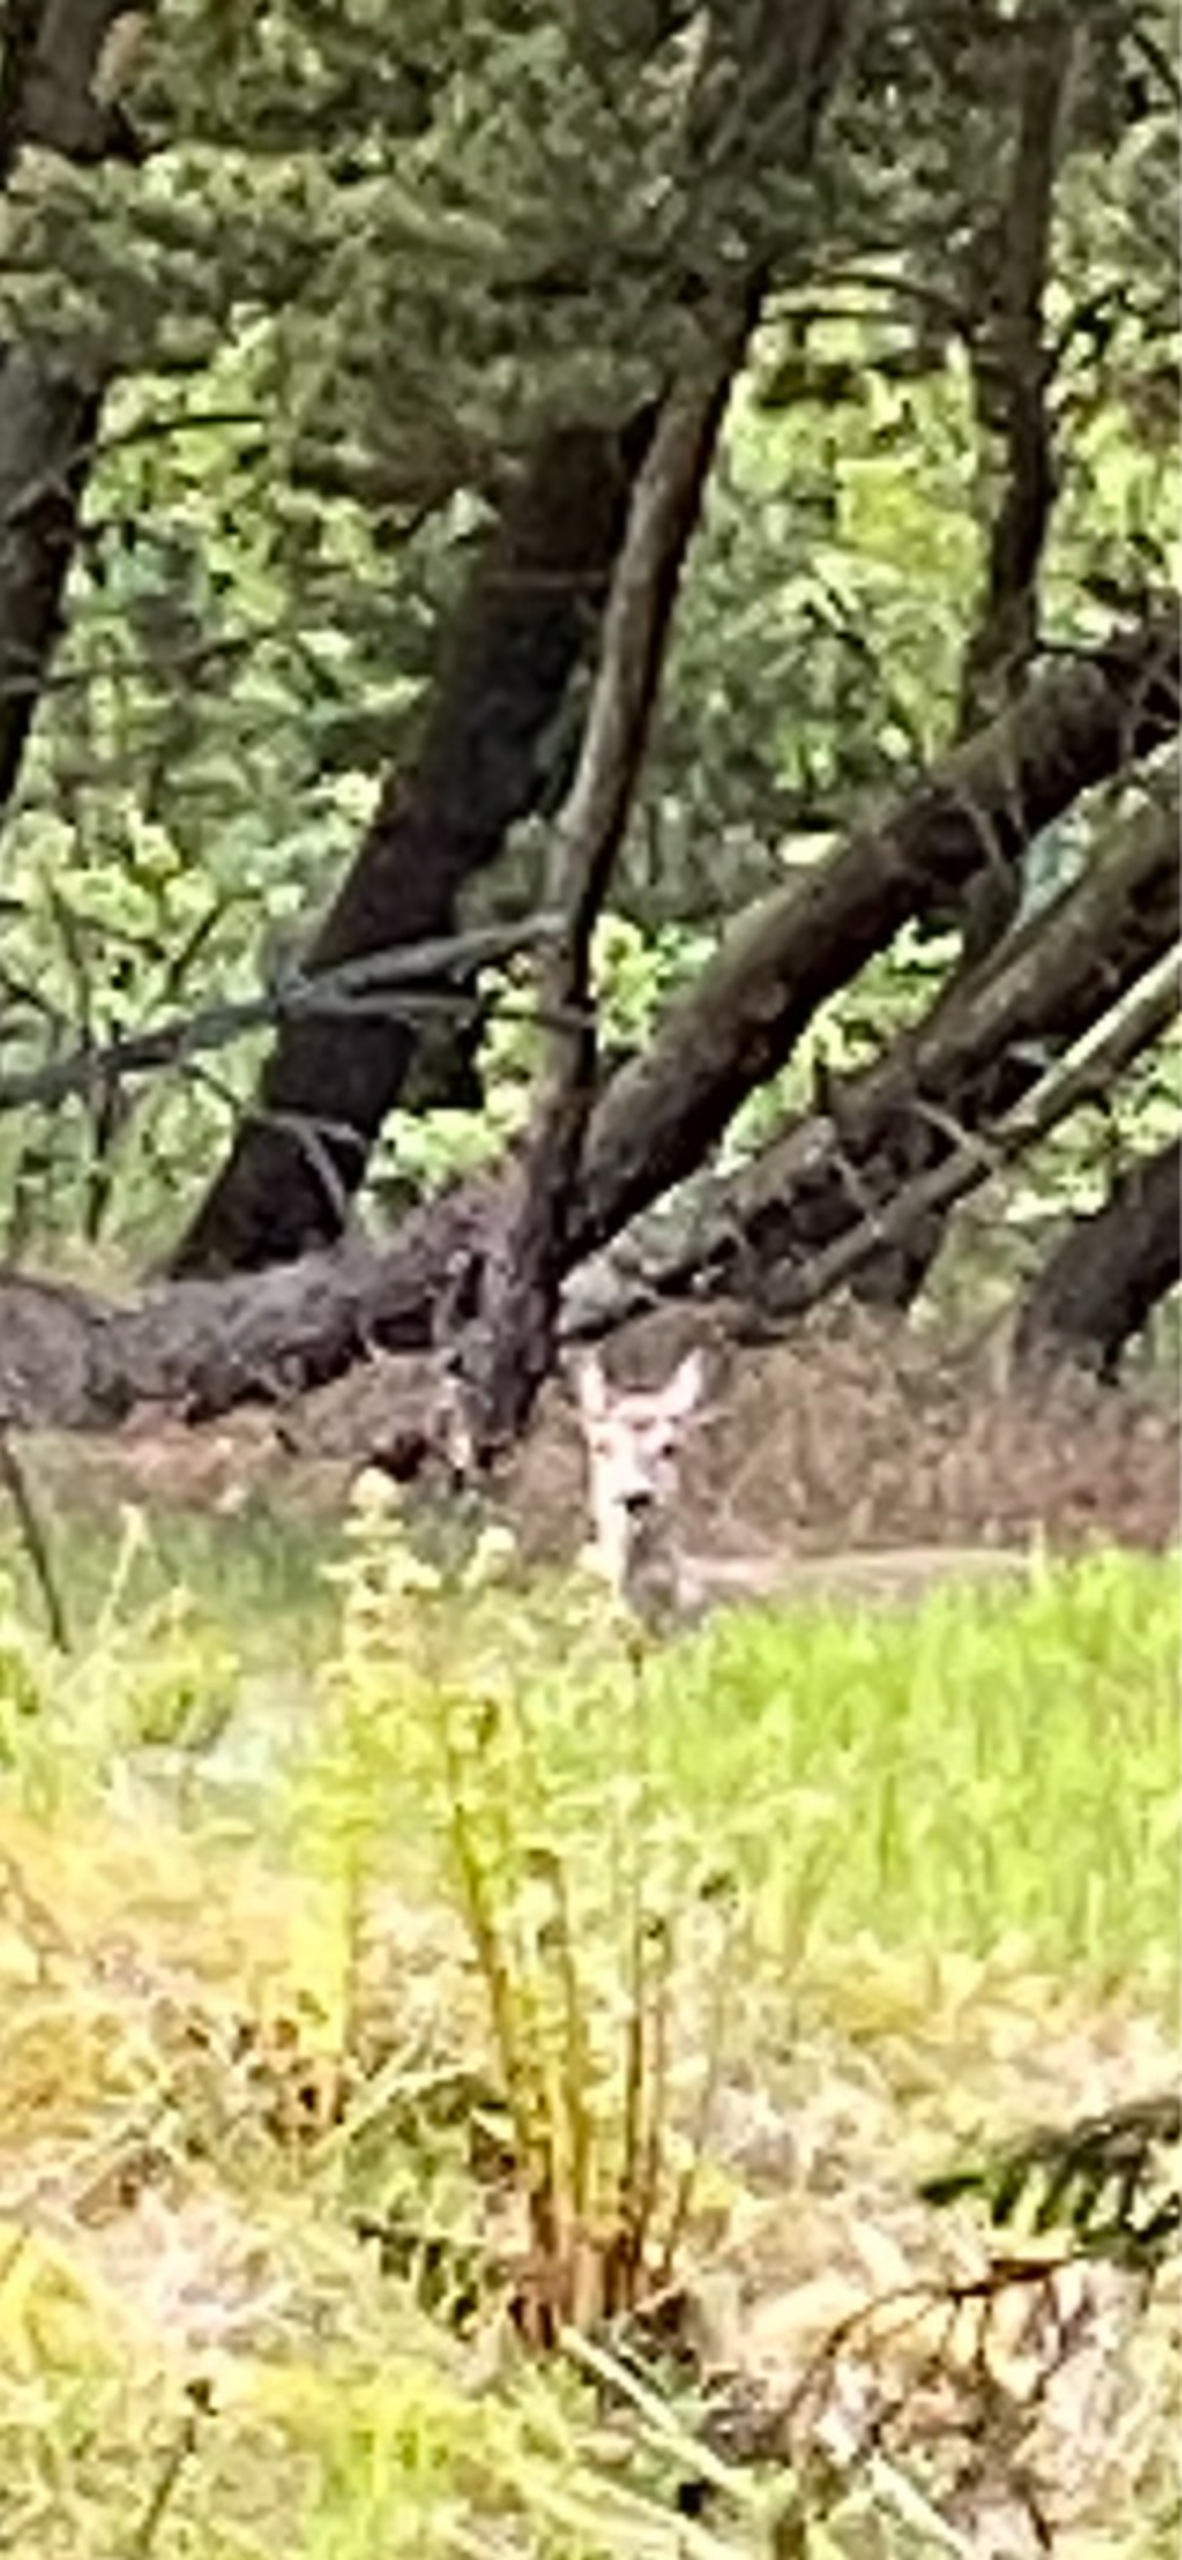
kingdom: Animalia
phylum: Chordata
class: Mammalia
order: Artiodactyla
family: Cervidae
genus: Capreolus
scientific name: Capreolus capreolus
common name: Rådyr
